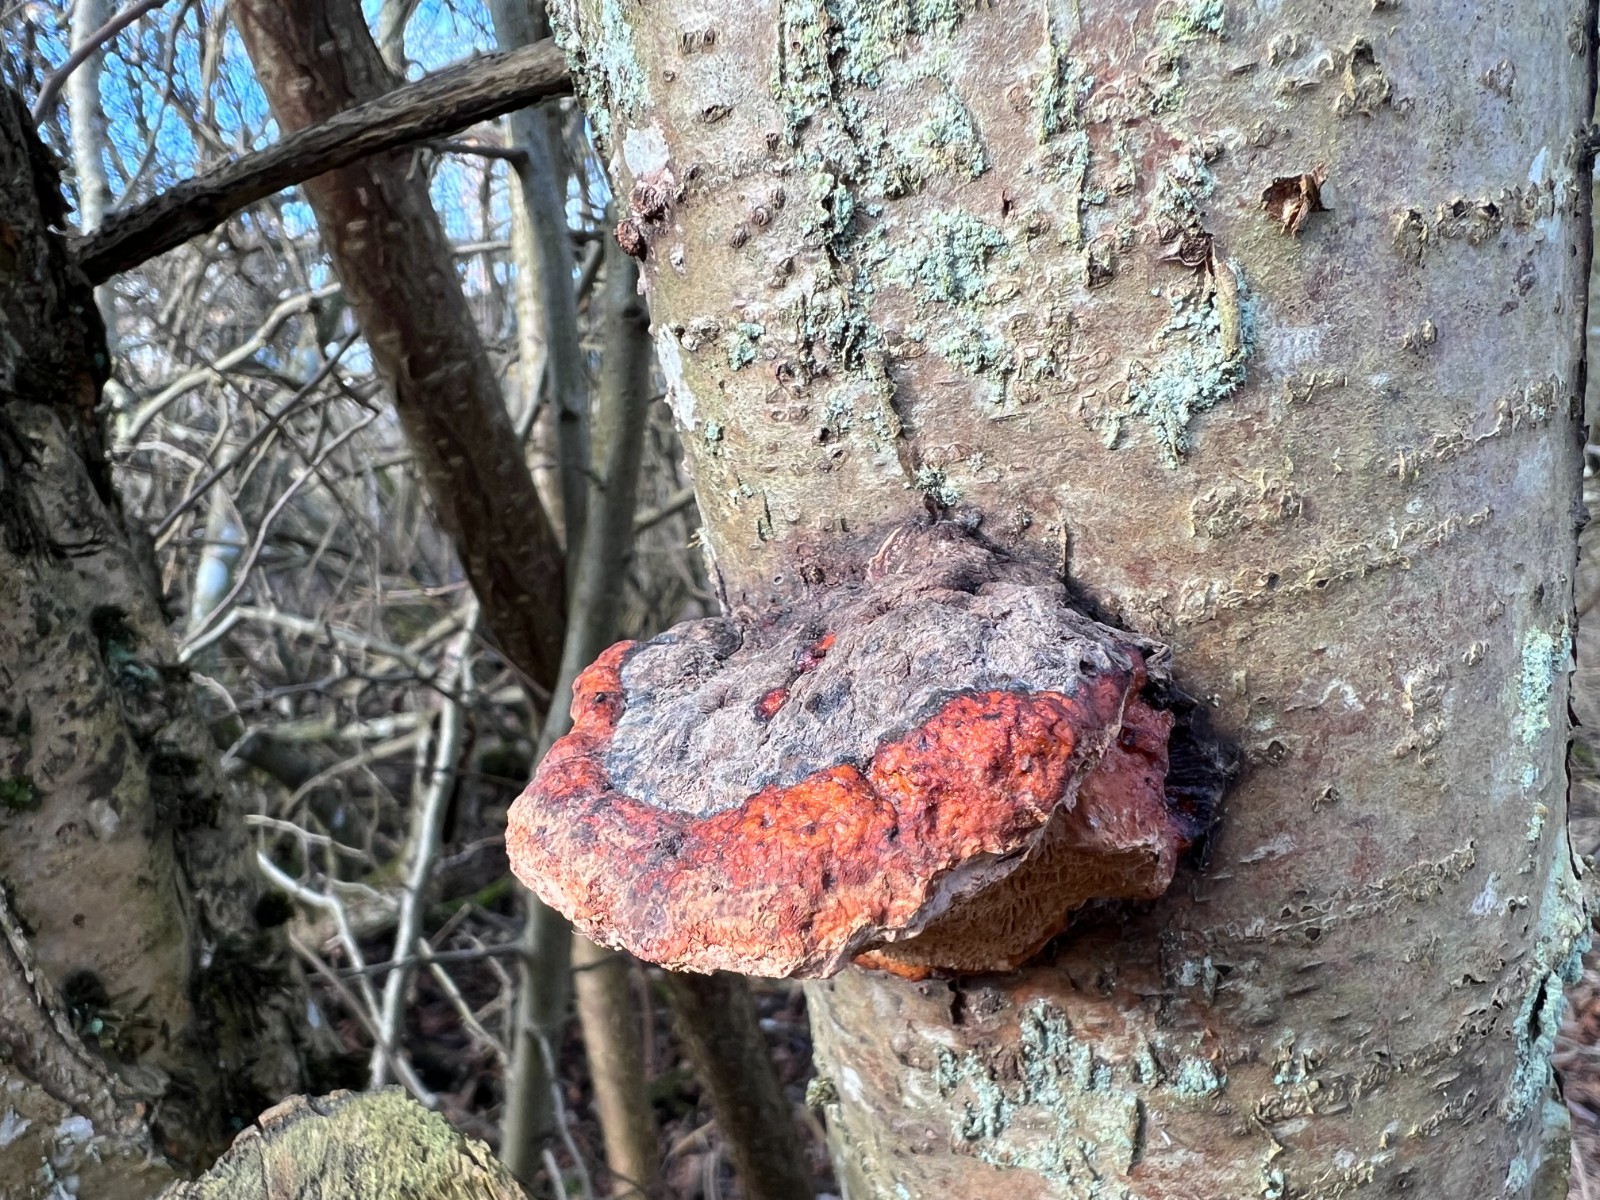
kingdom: Fungi
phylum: Basidiomycota
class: Agaricomycetes
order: Polyporales
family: Fomitopsidaceae
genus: Fomitopsis
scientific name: Fomitopsis pinicola
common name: randbæltet hovporesvamp
